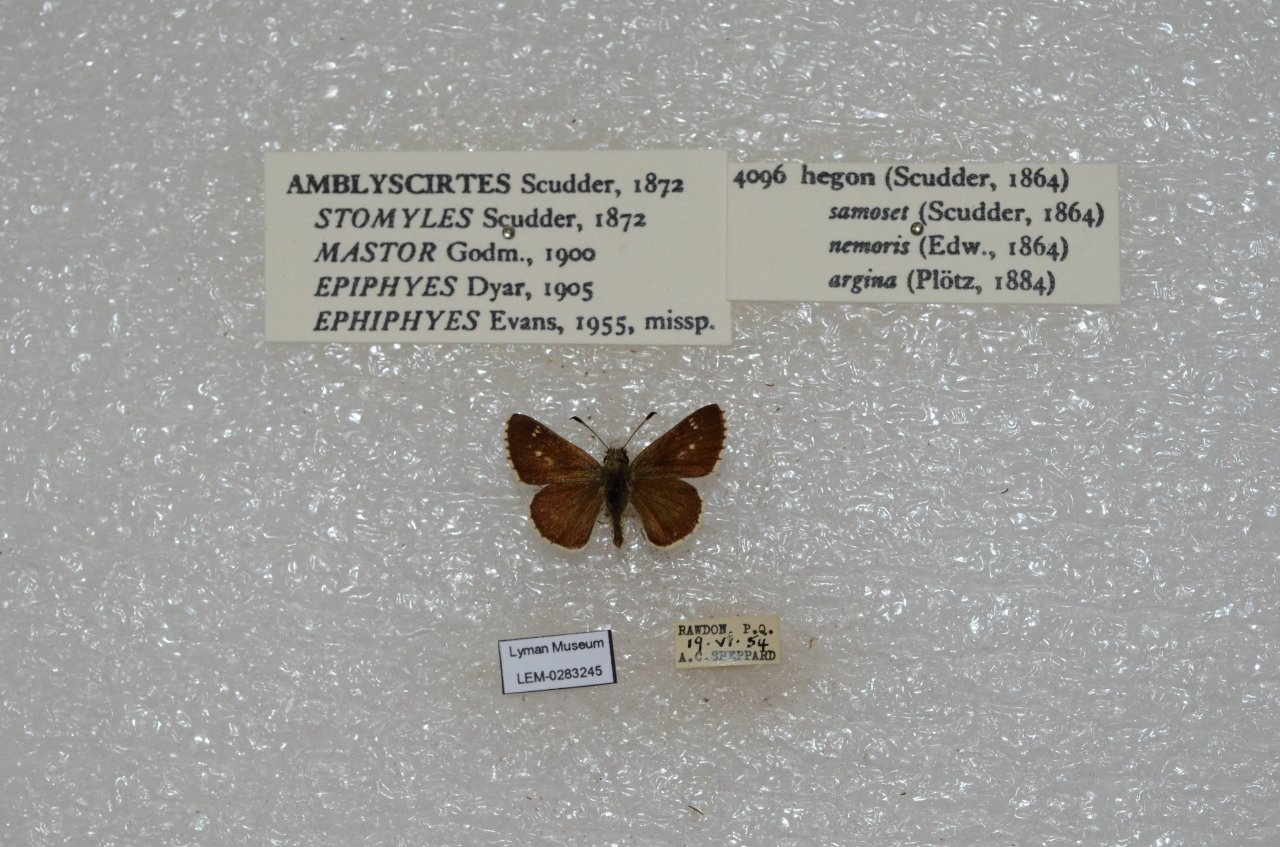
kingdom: Animalia
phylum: Arthropoda
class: Insecta
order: Lepidoptera
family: Hesperiidae
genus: Mastor
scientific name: Mastor hegon
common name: Pepper and Salt Skipper
